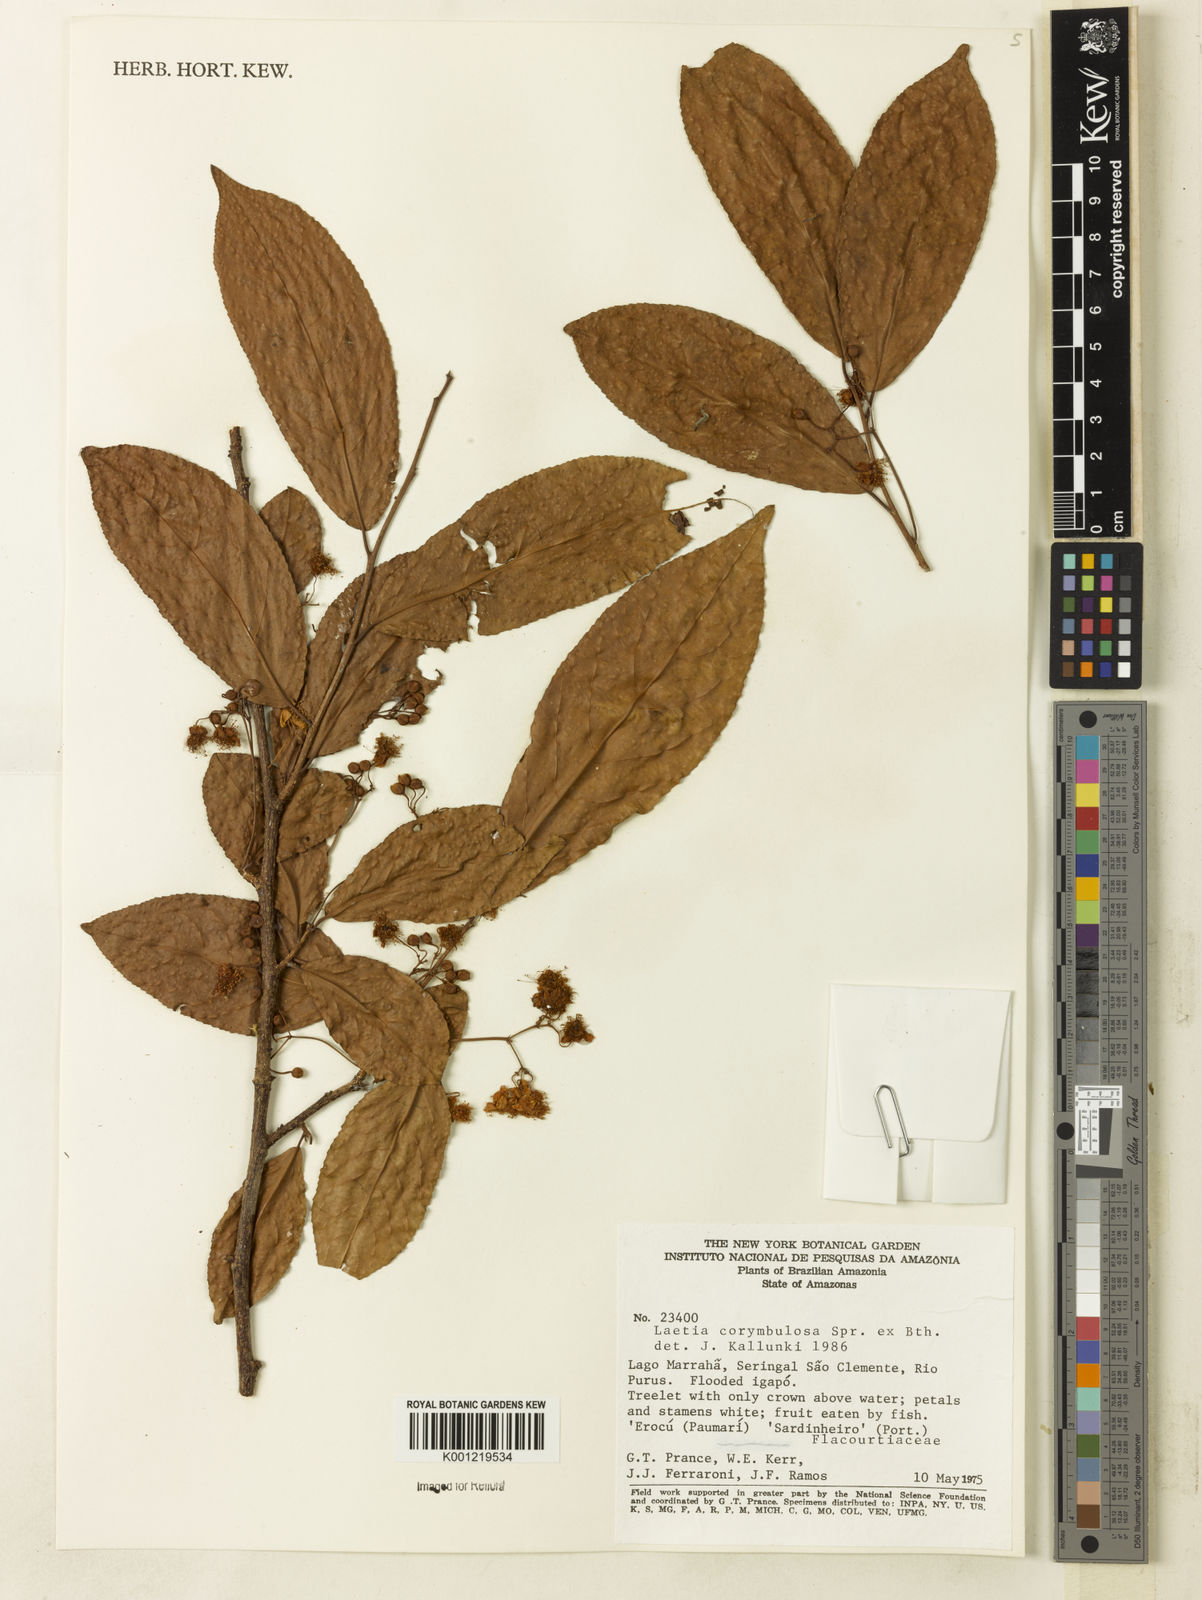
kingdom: Plantae
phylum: Tracheophyta
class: Magnoliopsida
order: Malpighiales
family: Salicaceae
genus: Casearia
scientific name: Casearia corymbulosa
